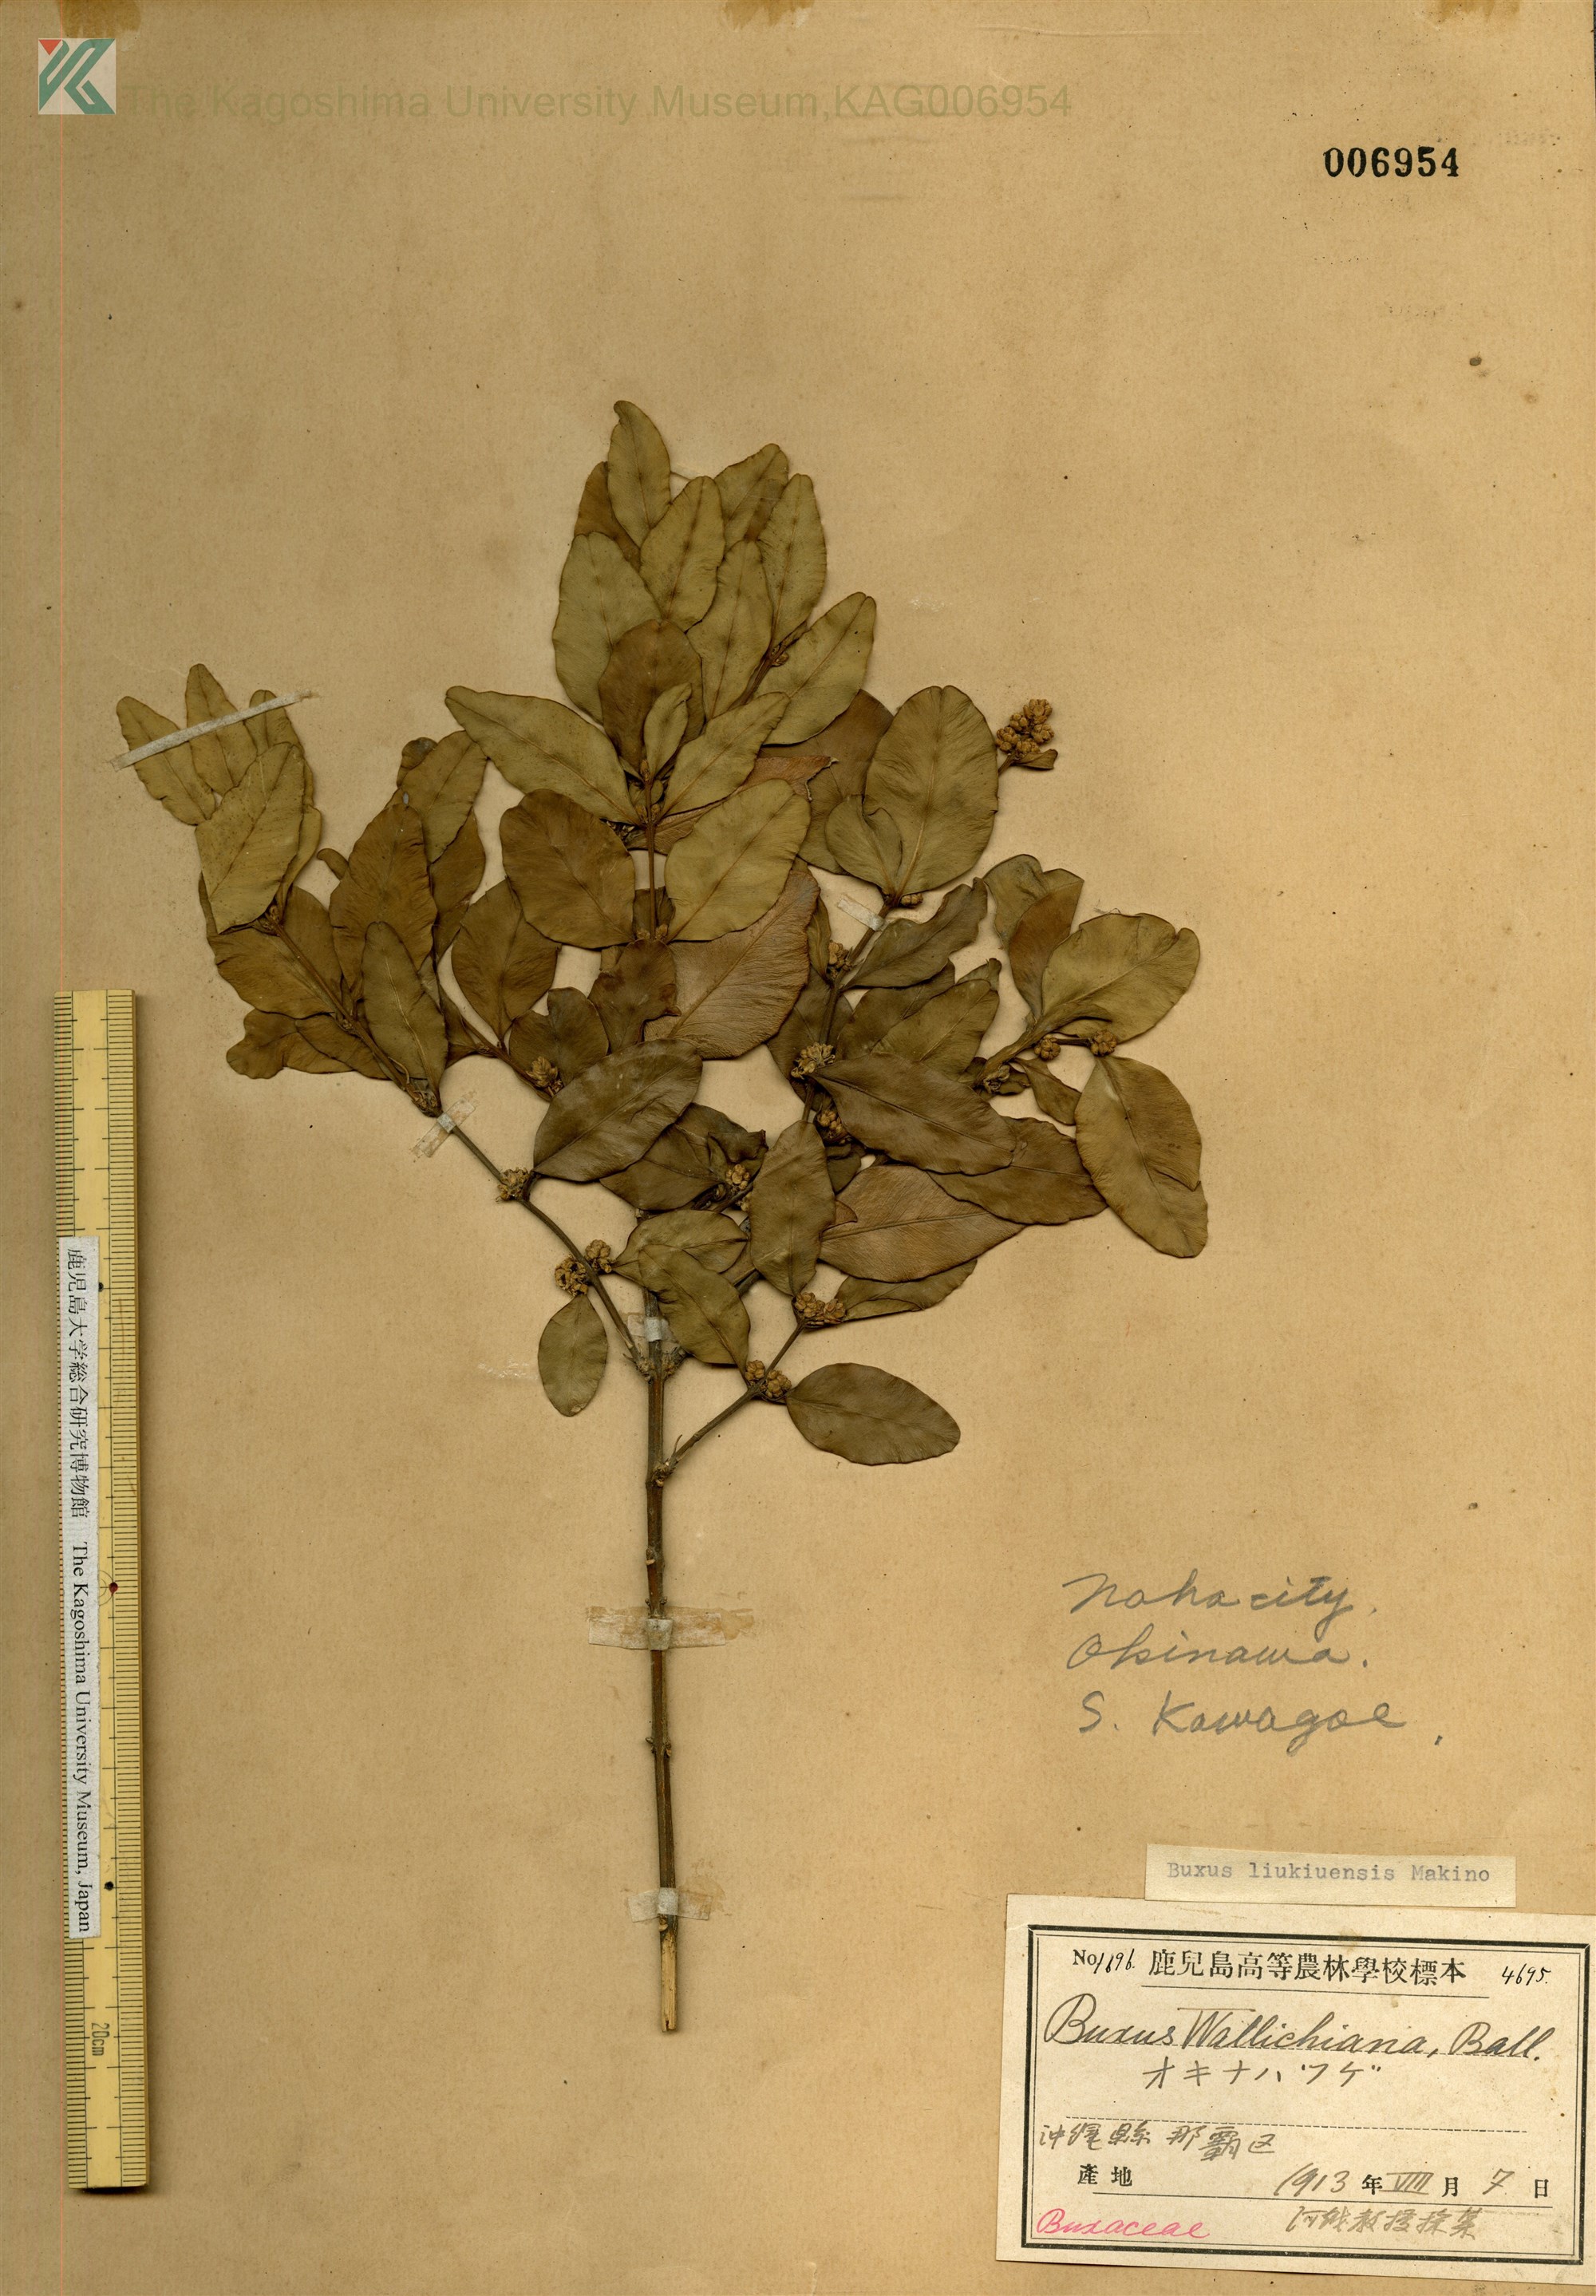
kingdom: Plantae
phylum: Tracheophyta
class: Magnoliopsida
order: Buxales
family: Buxaceae
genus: Buxus
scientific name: Buxus liukiuensis
